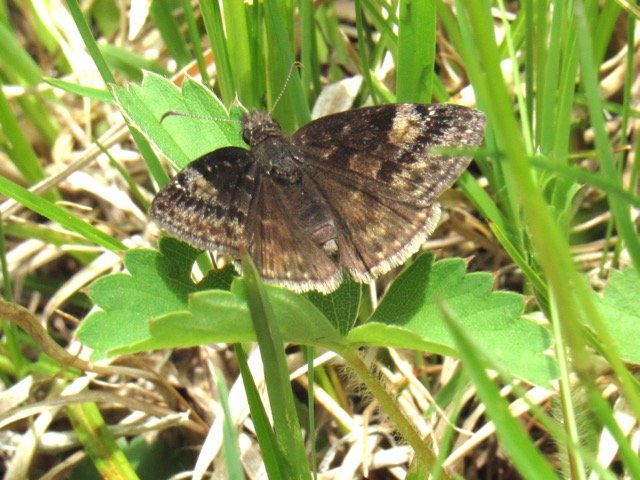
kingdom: Animalia
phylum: Arthropoda
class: Insecta
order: Lepidoptera
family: Hesperiidae
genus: Gesta
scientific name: Gesta
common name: Wild Indigo Duskywing
